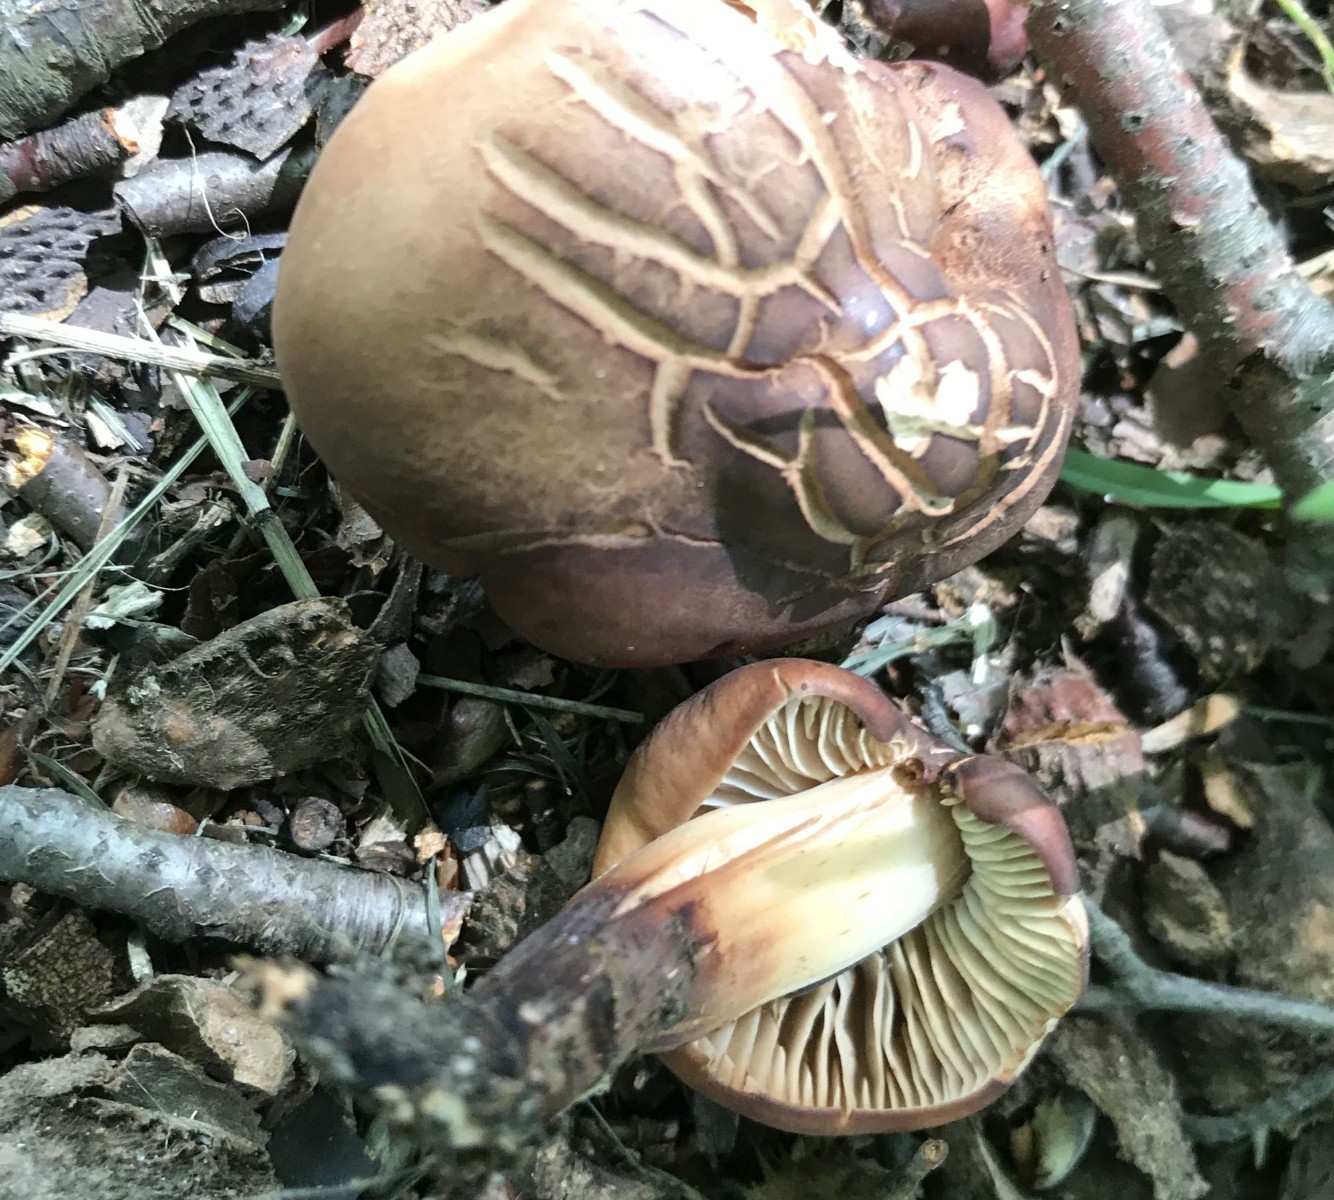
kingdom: Fungi
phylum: Basidiomycota
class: Agaricomycetes
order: Agaricales
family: Omphalotaceae
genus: Gymnopus
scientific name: Gymnopus fusipes
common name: tenstokket fladhat
